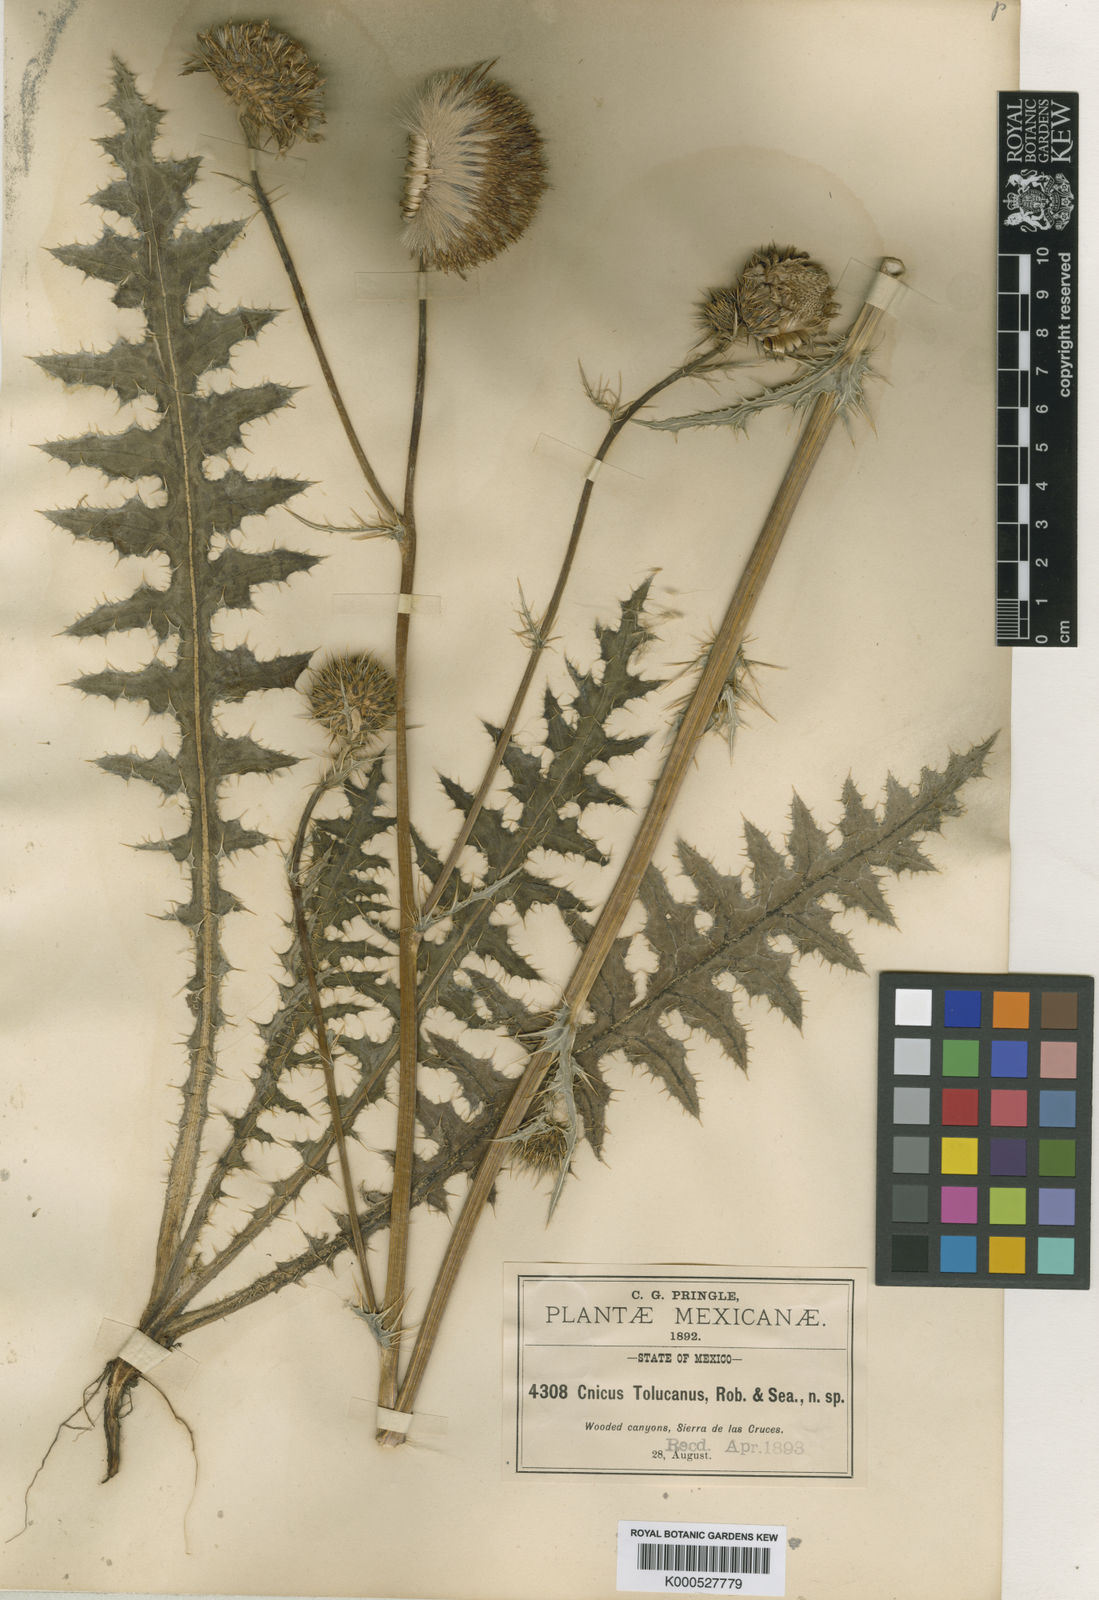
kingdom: Plantae
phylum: Tracheophyta
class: Magnoliopsida
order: Asterales
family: Asteraceae
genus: Cirsium
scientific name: Cirsium tolucanum
